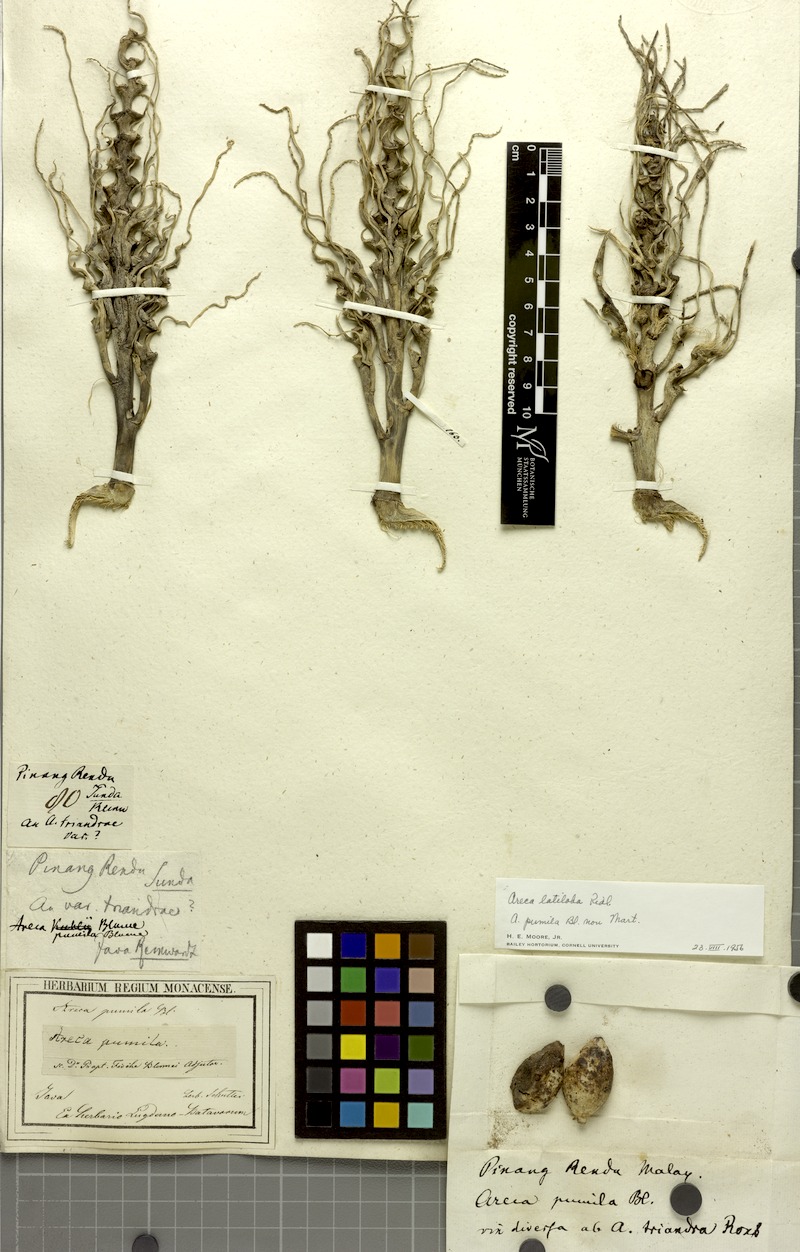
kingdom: Plantae
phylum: Tracheophyta
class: Liliopsida
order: Arecales
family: Arecaceae
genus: Nenga
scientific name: Nenga pumila
